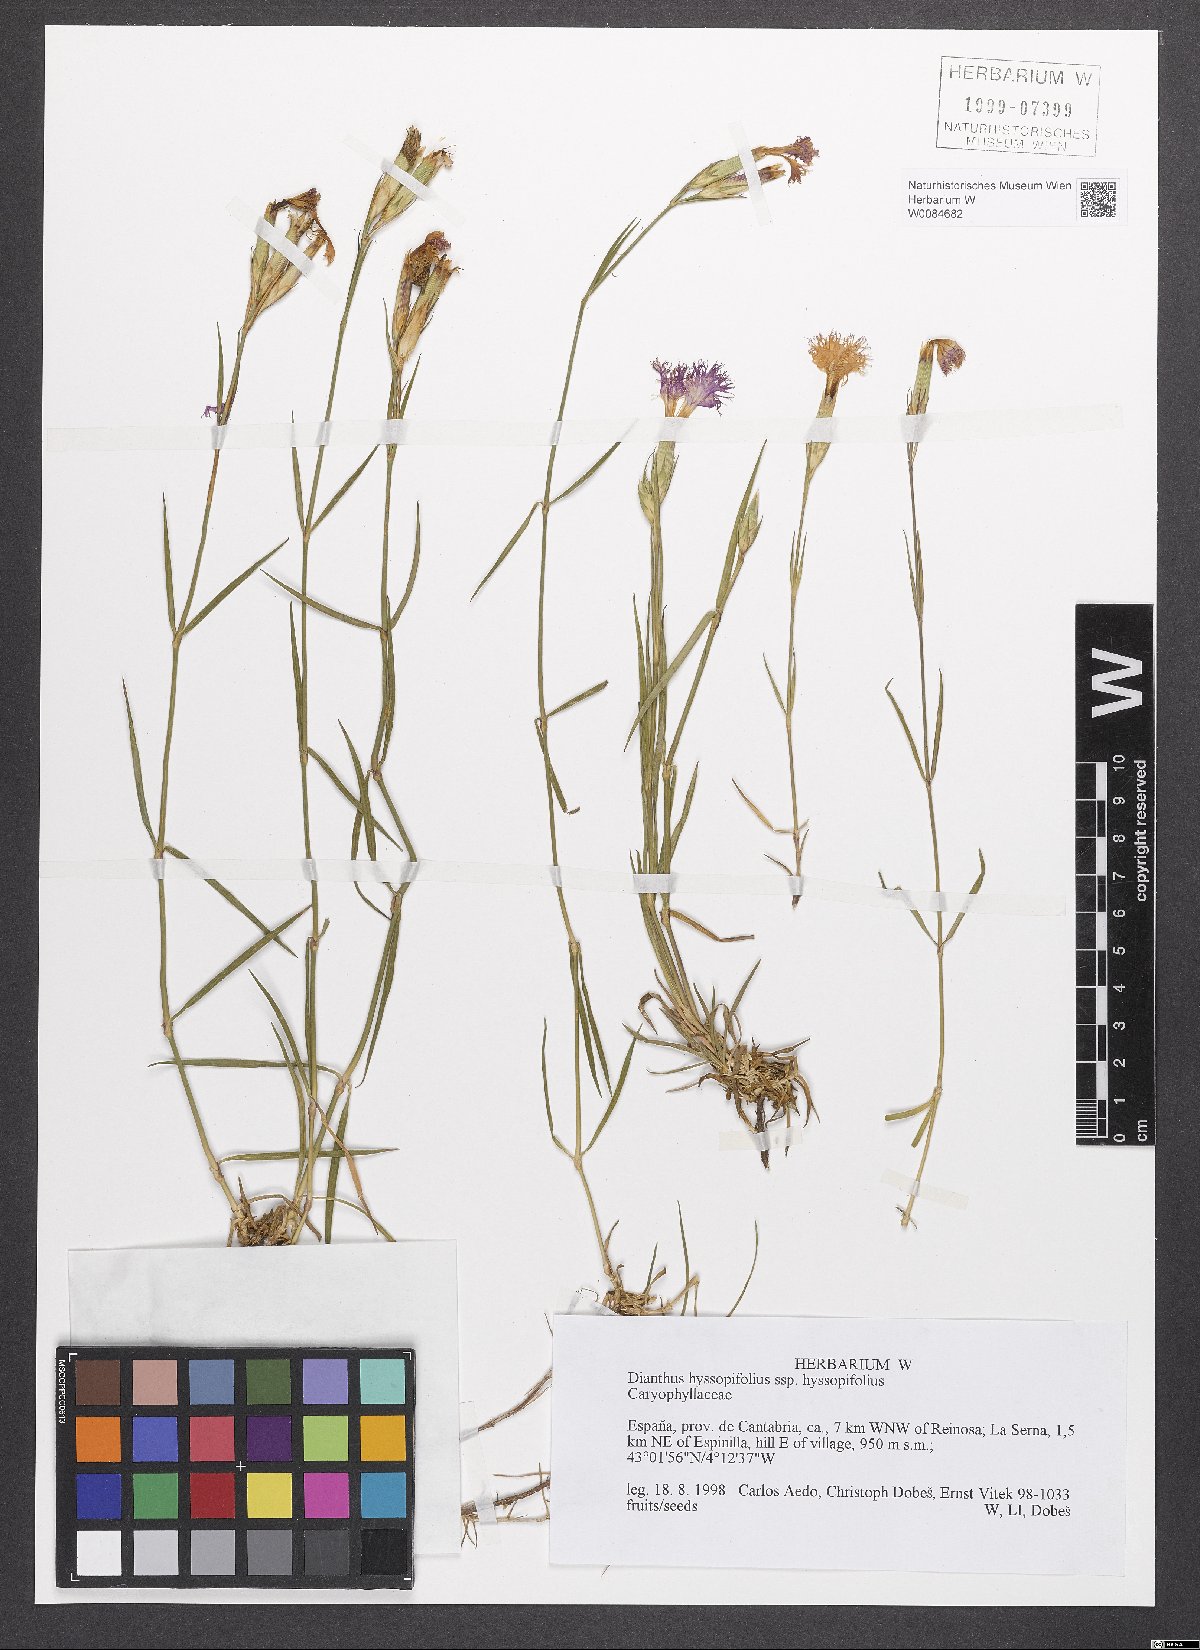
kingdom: Plantae
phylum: Tracheophyta
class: Magnoliopsida
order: Caryophyllales
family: Caryophyllaceae
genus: Dianthus
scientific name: Dianthus hyssopifolius
